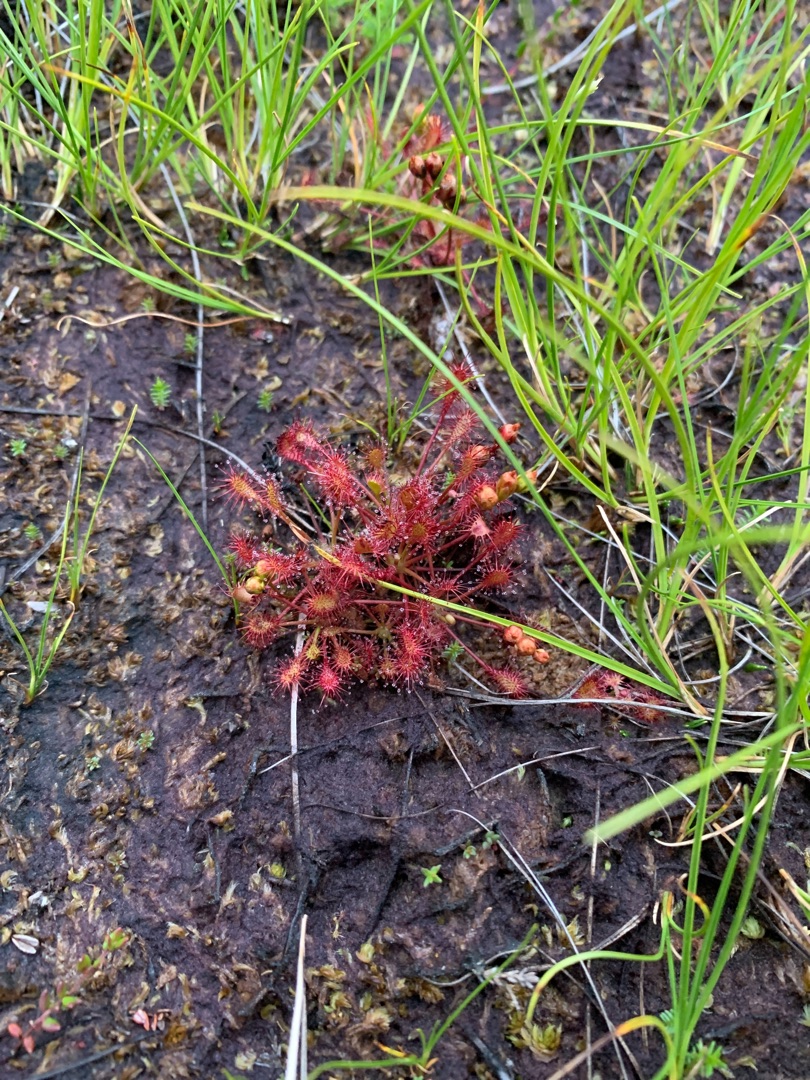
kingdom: Plantae
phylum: Tracheophyta
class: Magnoliopsida
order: Caryophyllales
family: Droseraceae
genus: Drosera
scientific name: Drosera intermedia
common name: Liden soldug
